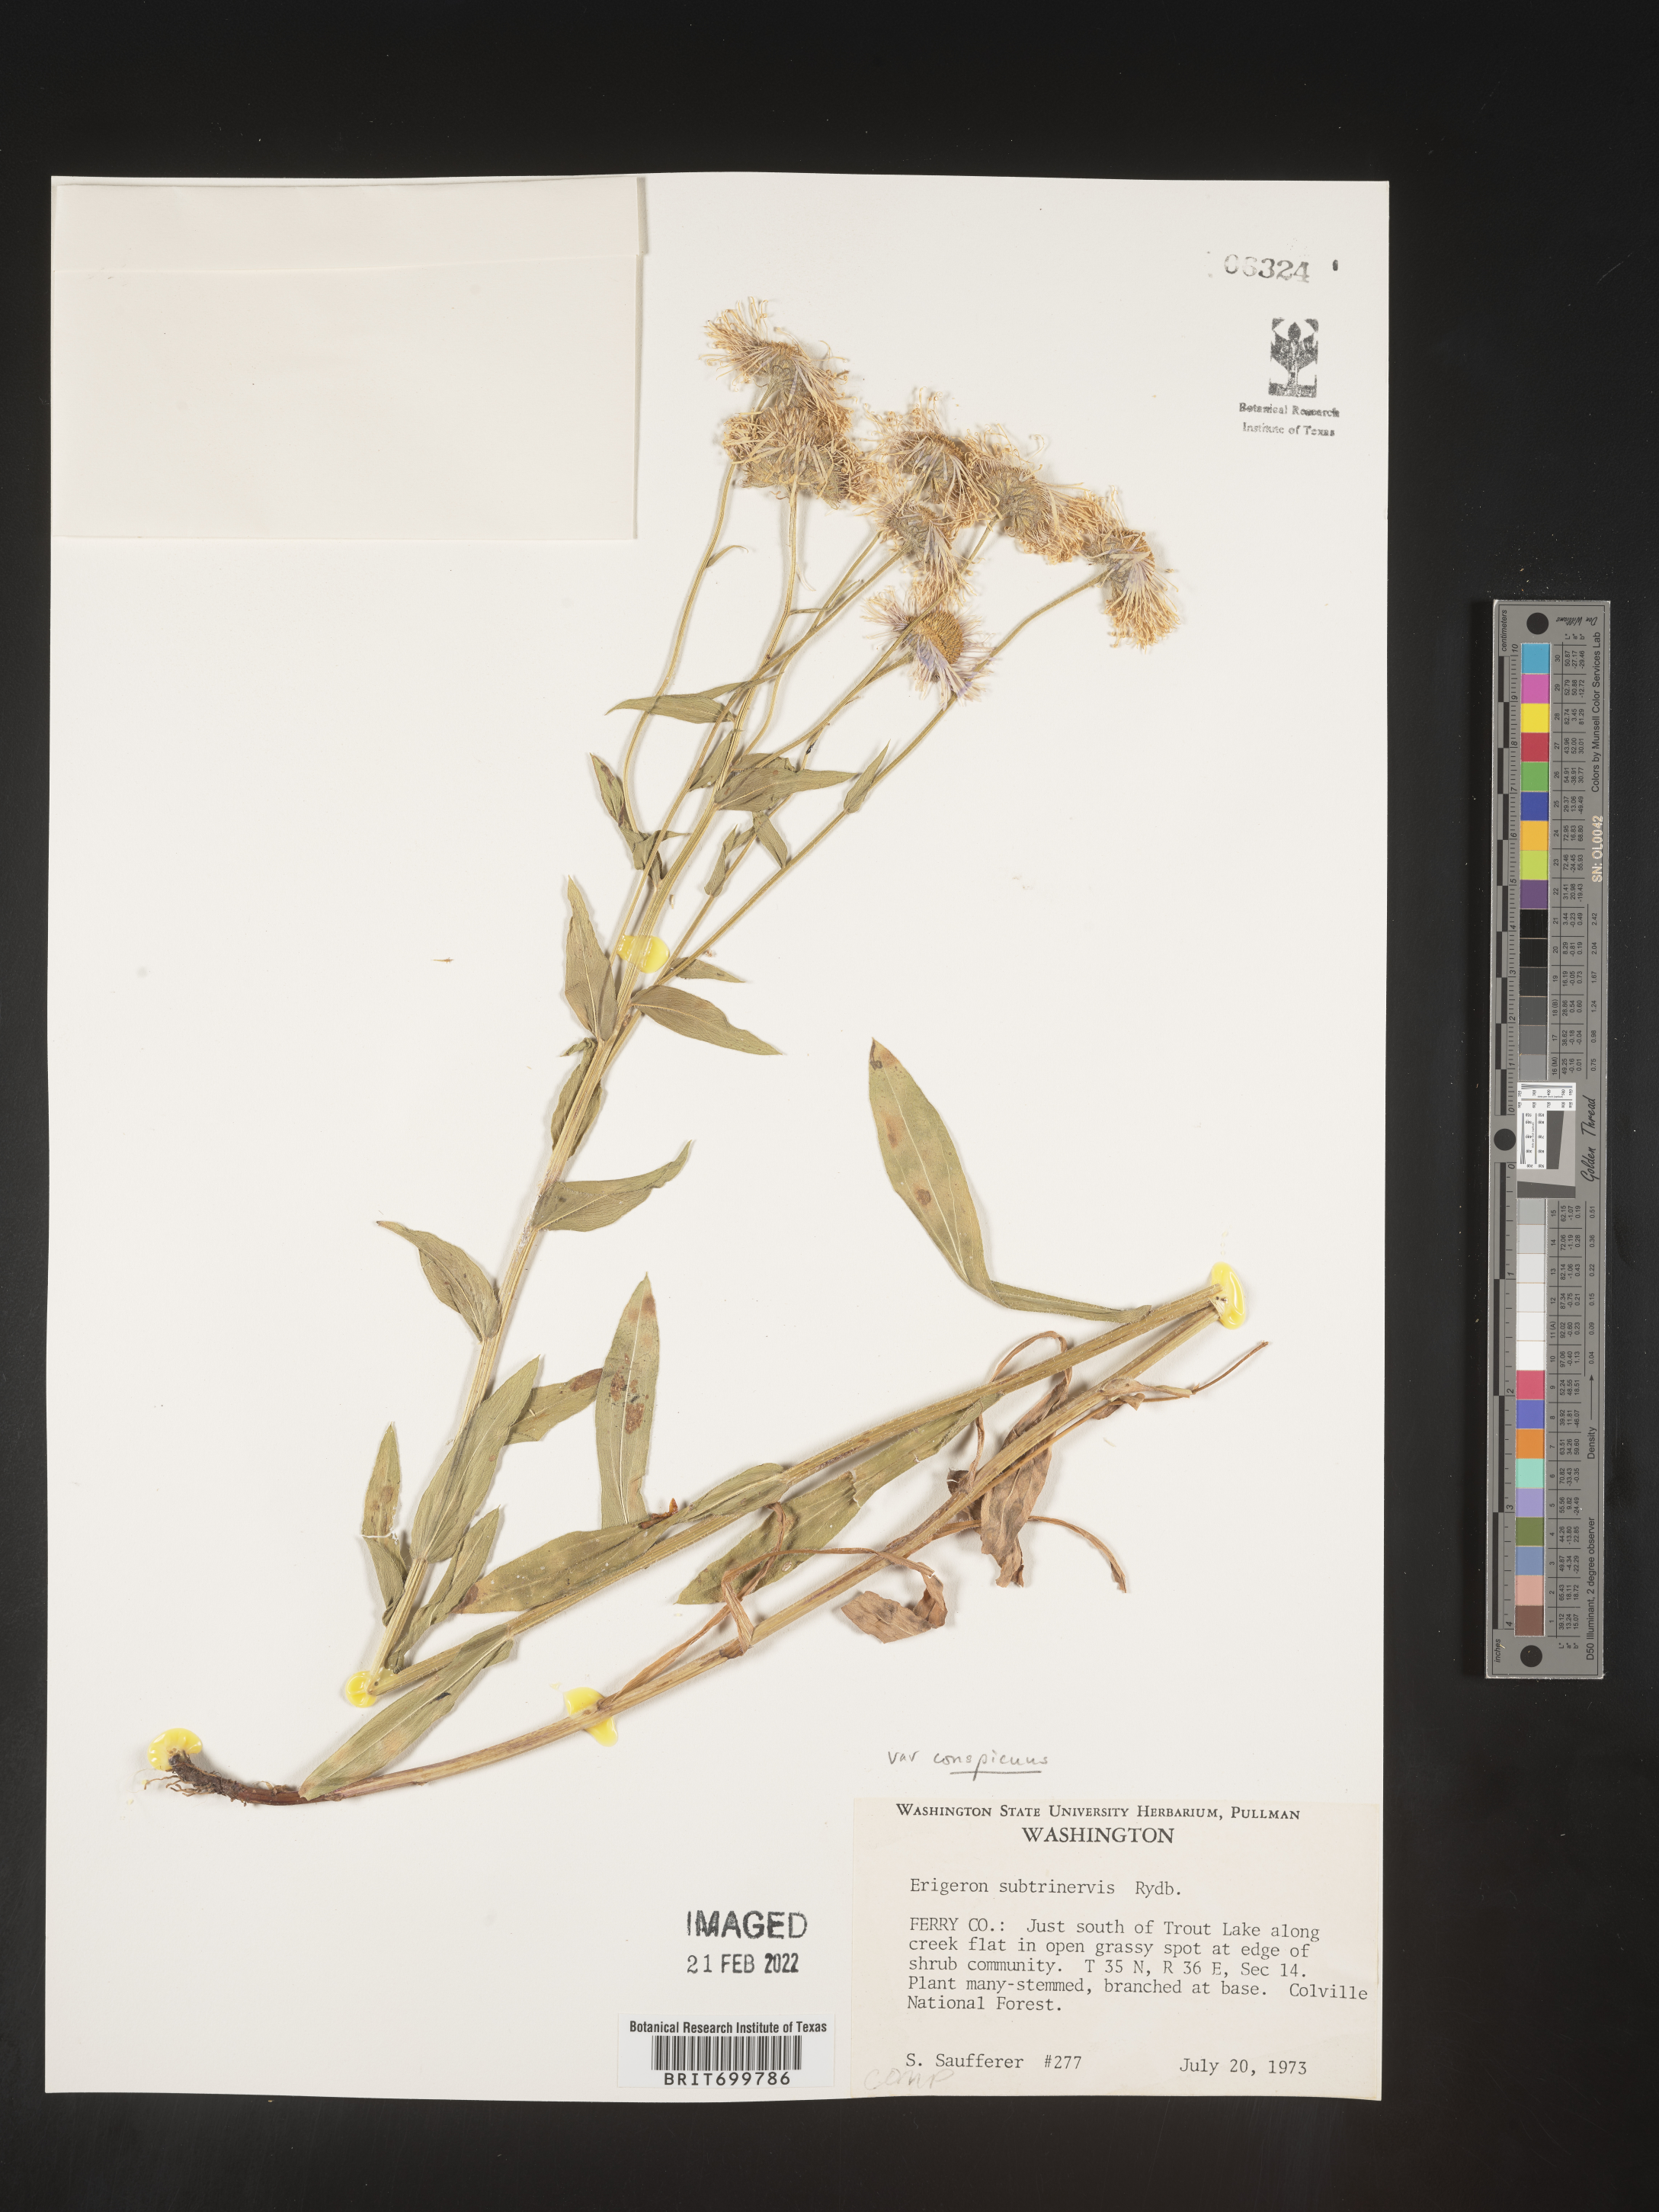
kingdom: Plantae
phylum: Tracheophyta
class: Magnoliopsida
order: Asterales
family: Asteraceae
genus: Erigeron
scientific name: Erigeron subtrinervis
